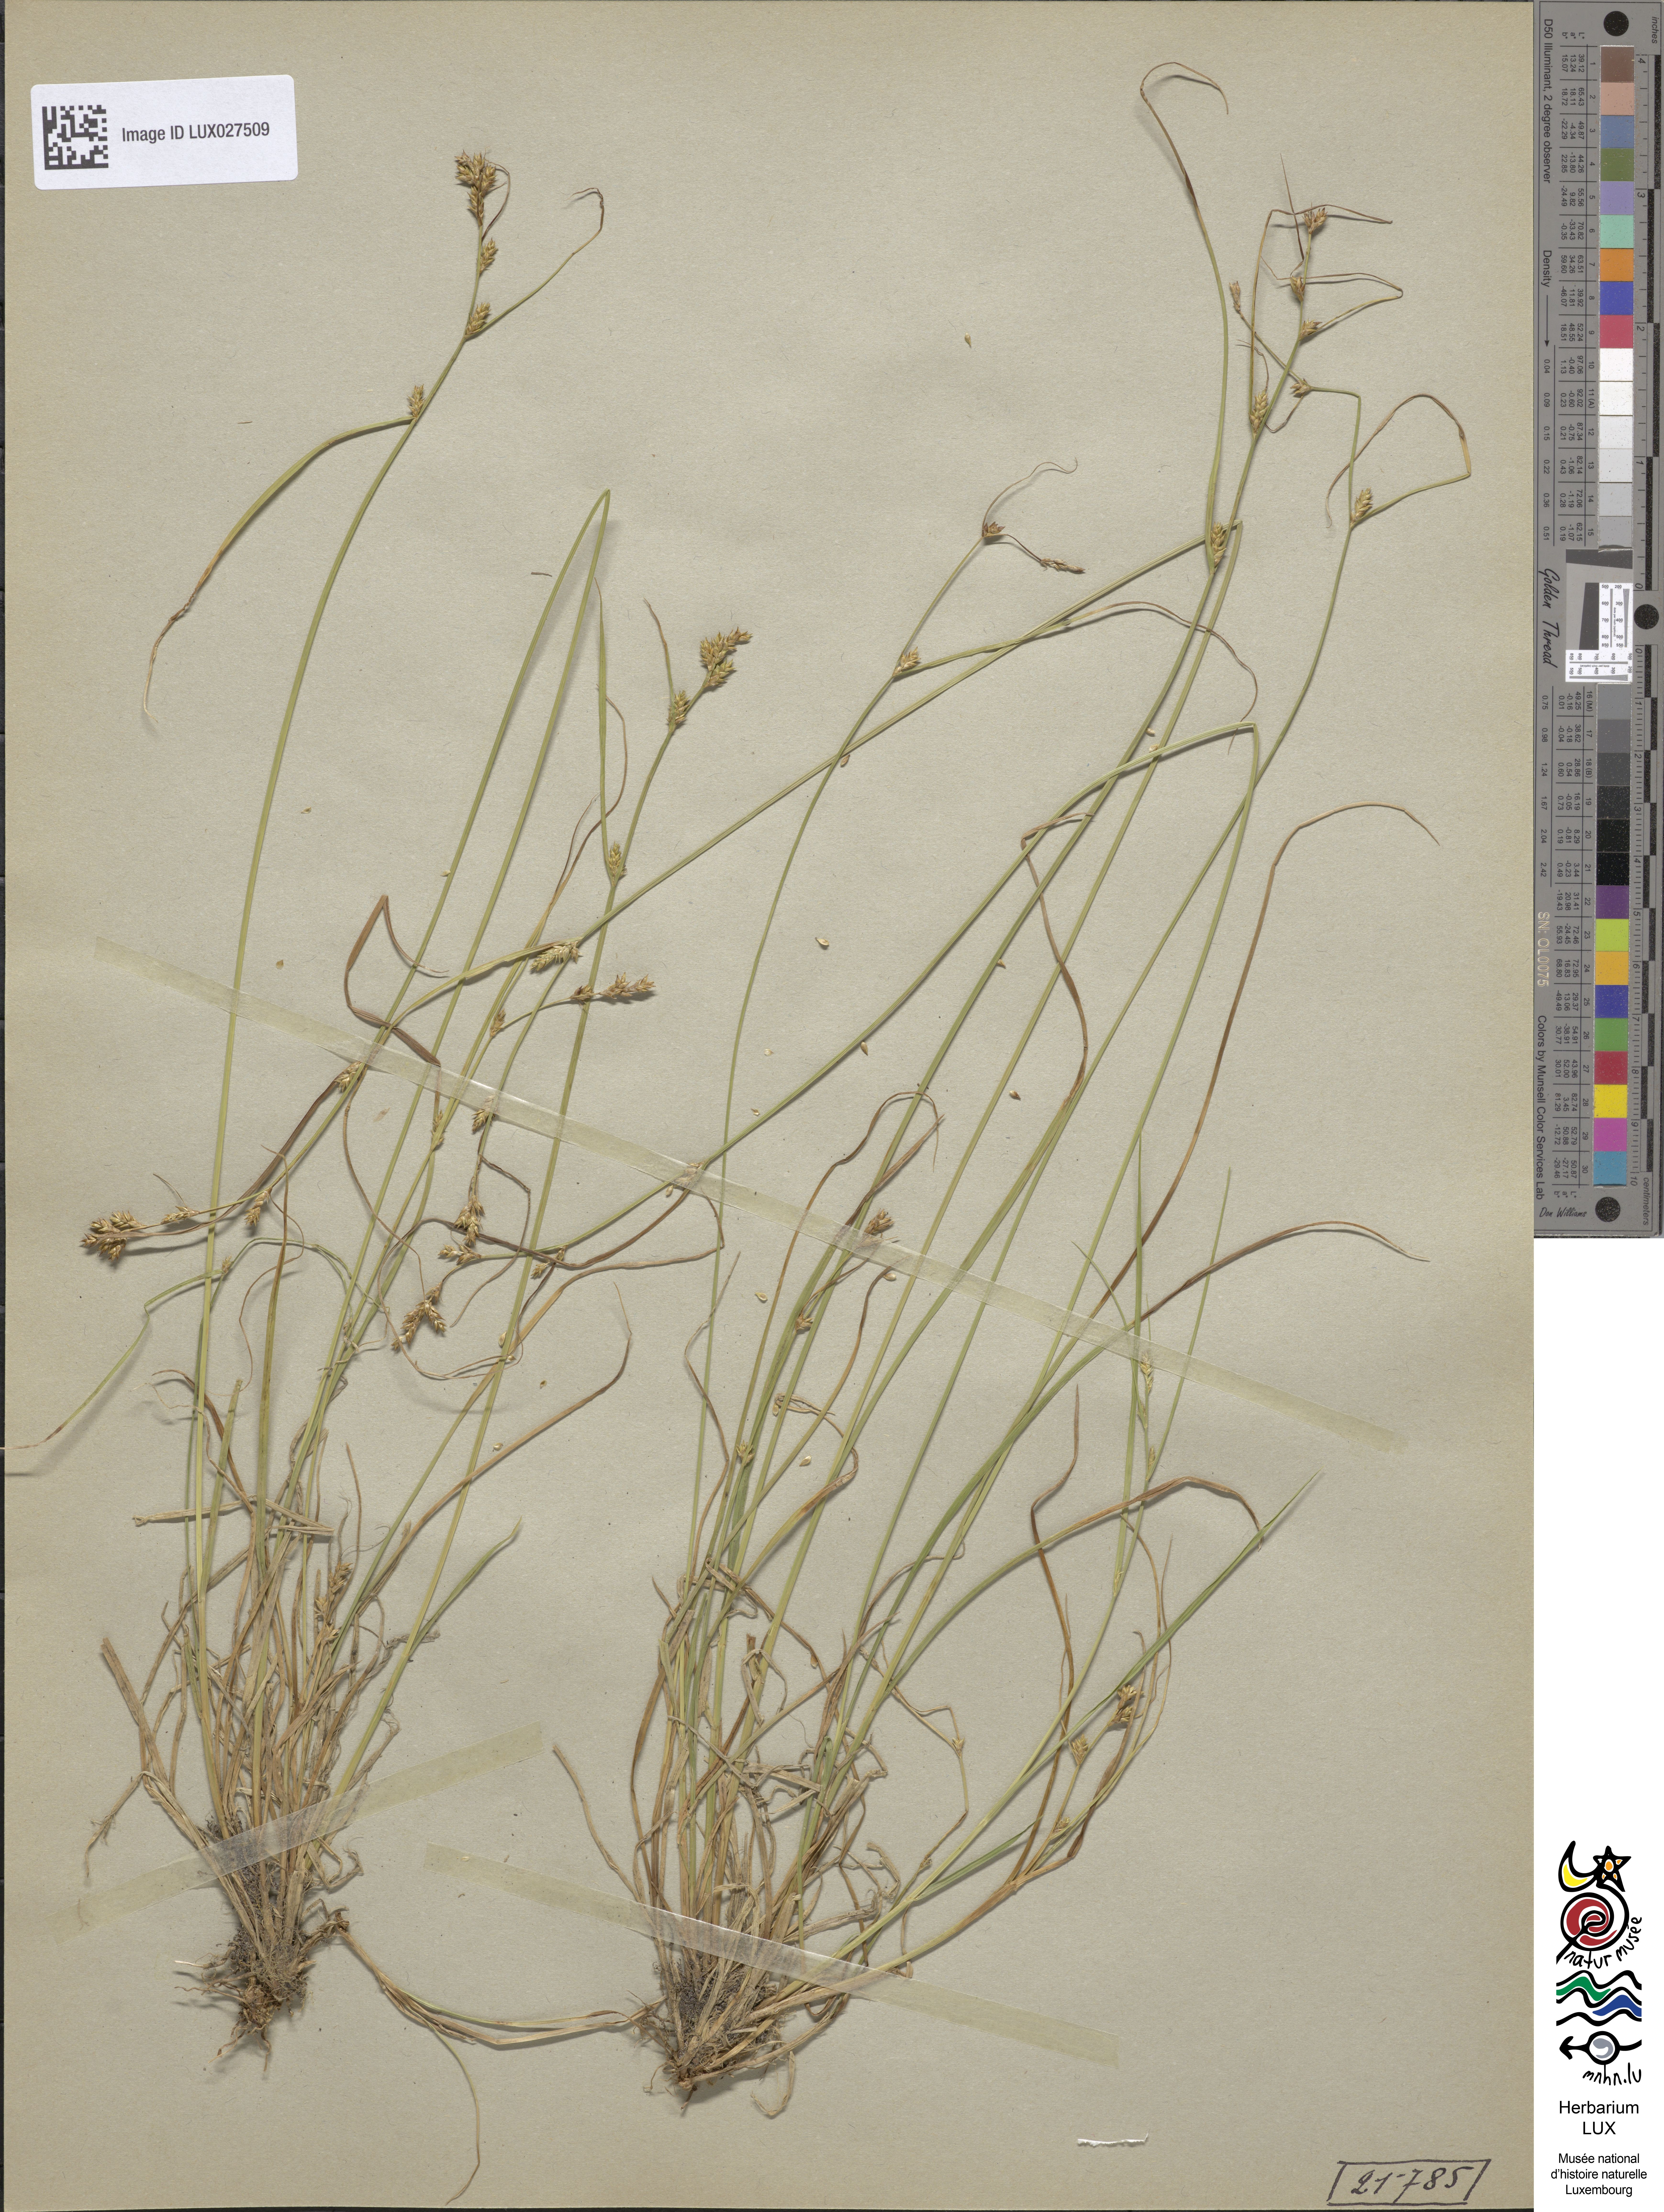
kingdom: Plantae
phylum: Tracheophyta
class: Liliopsida
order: Poales
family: Cyperaceae
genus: Carex
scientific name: Carex remota
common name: Remote sedge
